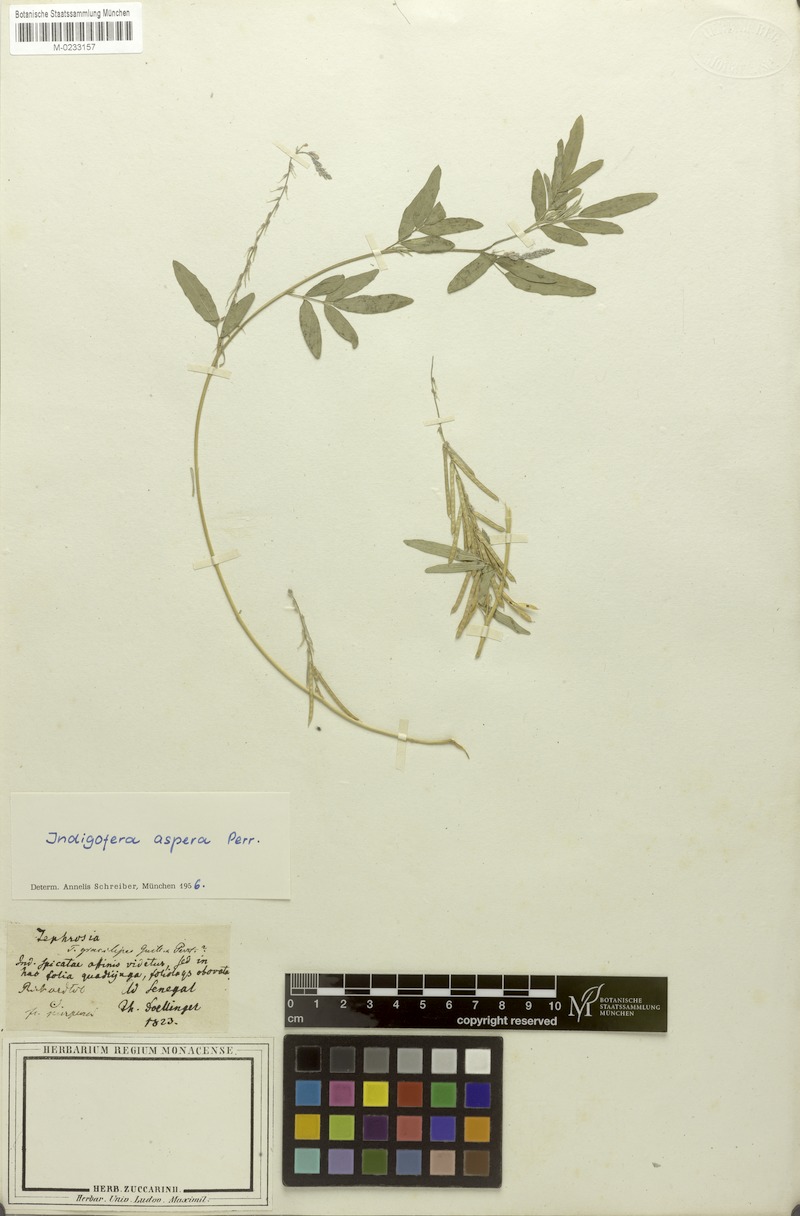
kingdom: Plantae
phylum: Tracheophyta
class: Magnoliopsida
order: Fabales
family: Fabaceae
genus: Indigofera
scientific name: Indigofera aspera
